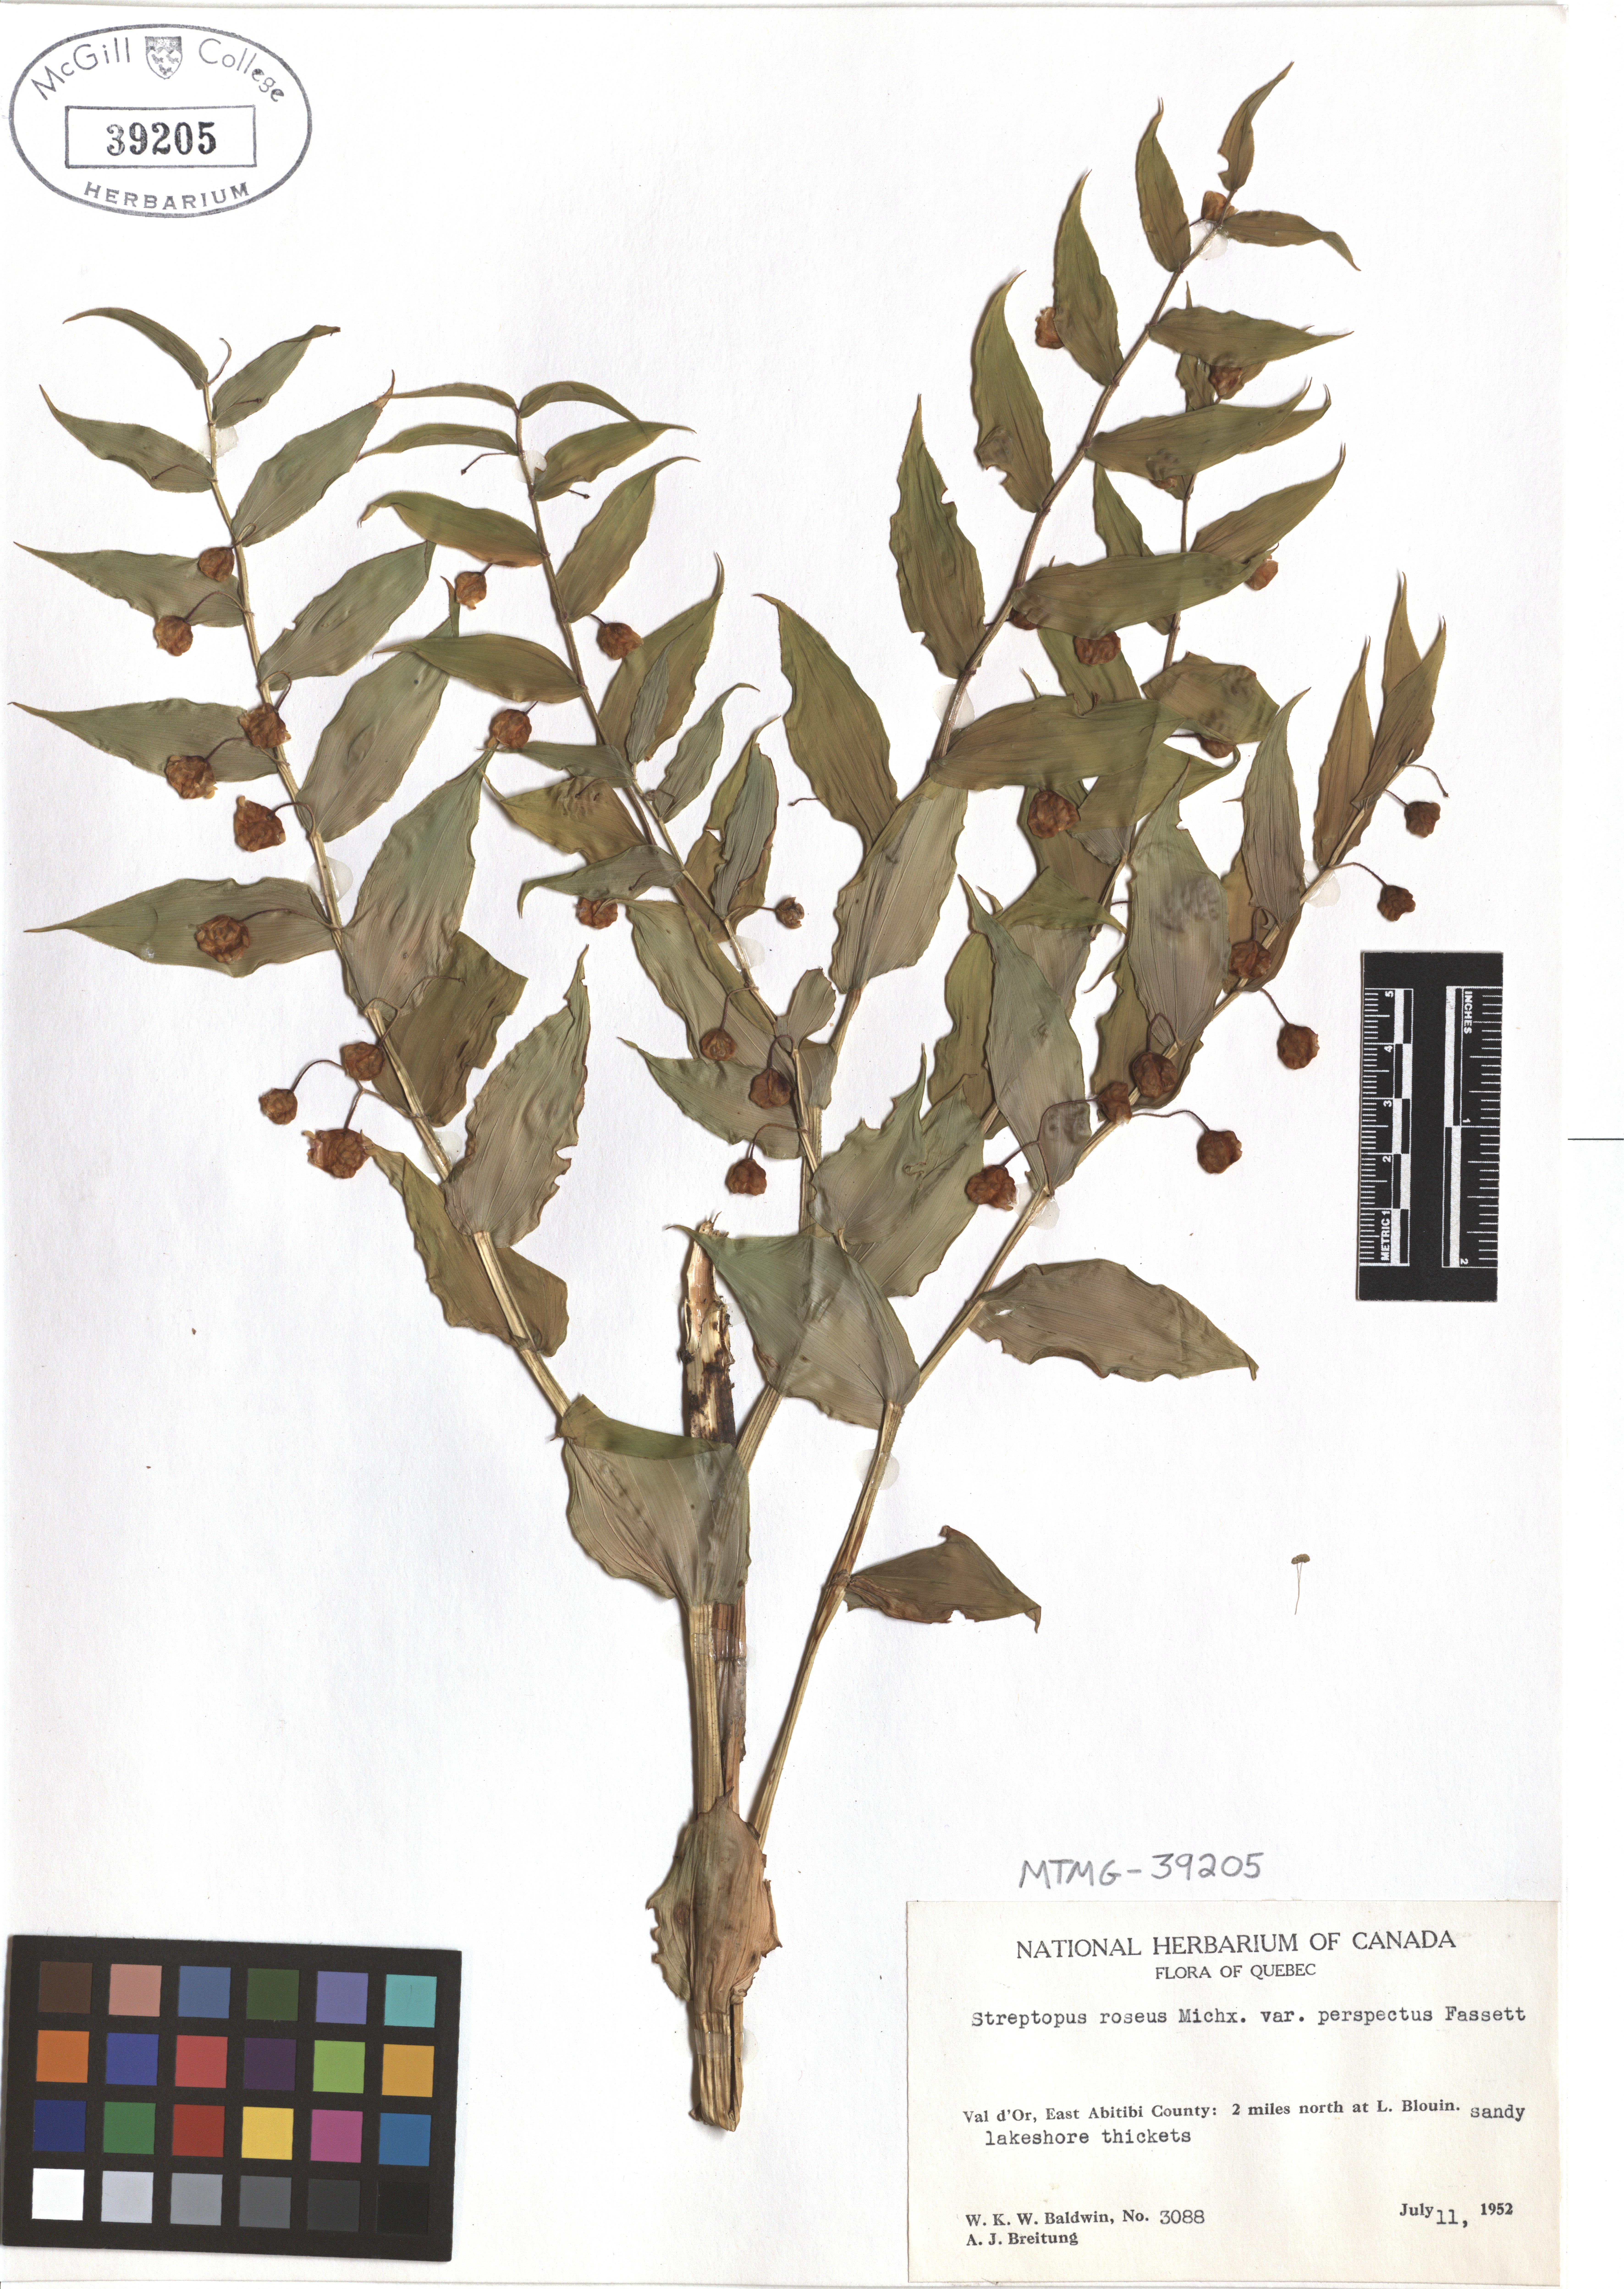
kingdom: Plantae
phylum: Tracheophyta
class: Liliopsida
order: Liliales
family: Liliaceae
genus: Streptopus
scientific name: Streptopus lanceolatus
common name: Rose mandarin
